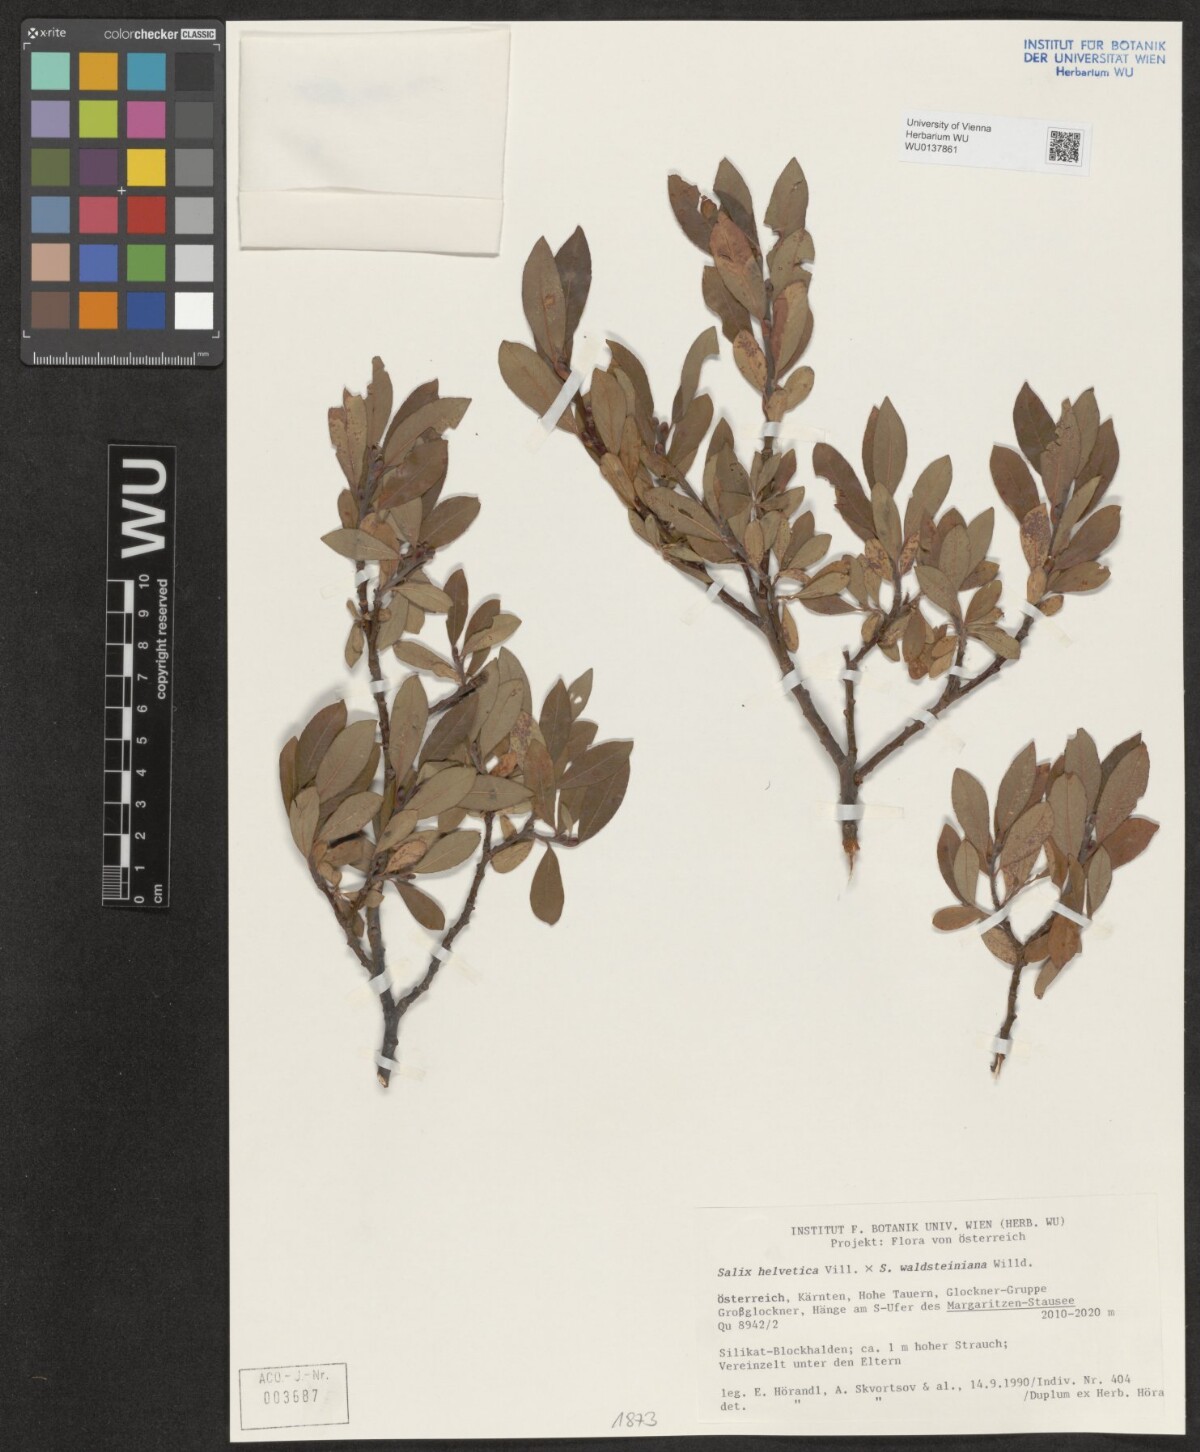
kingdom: Plantae
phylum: Tracheophyta
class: Magnoliopsida
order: Malpighiales
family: Salicaceae
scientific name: Salicaceae
